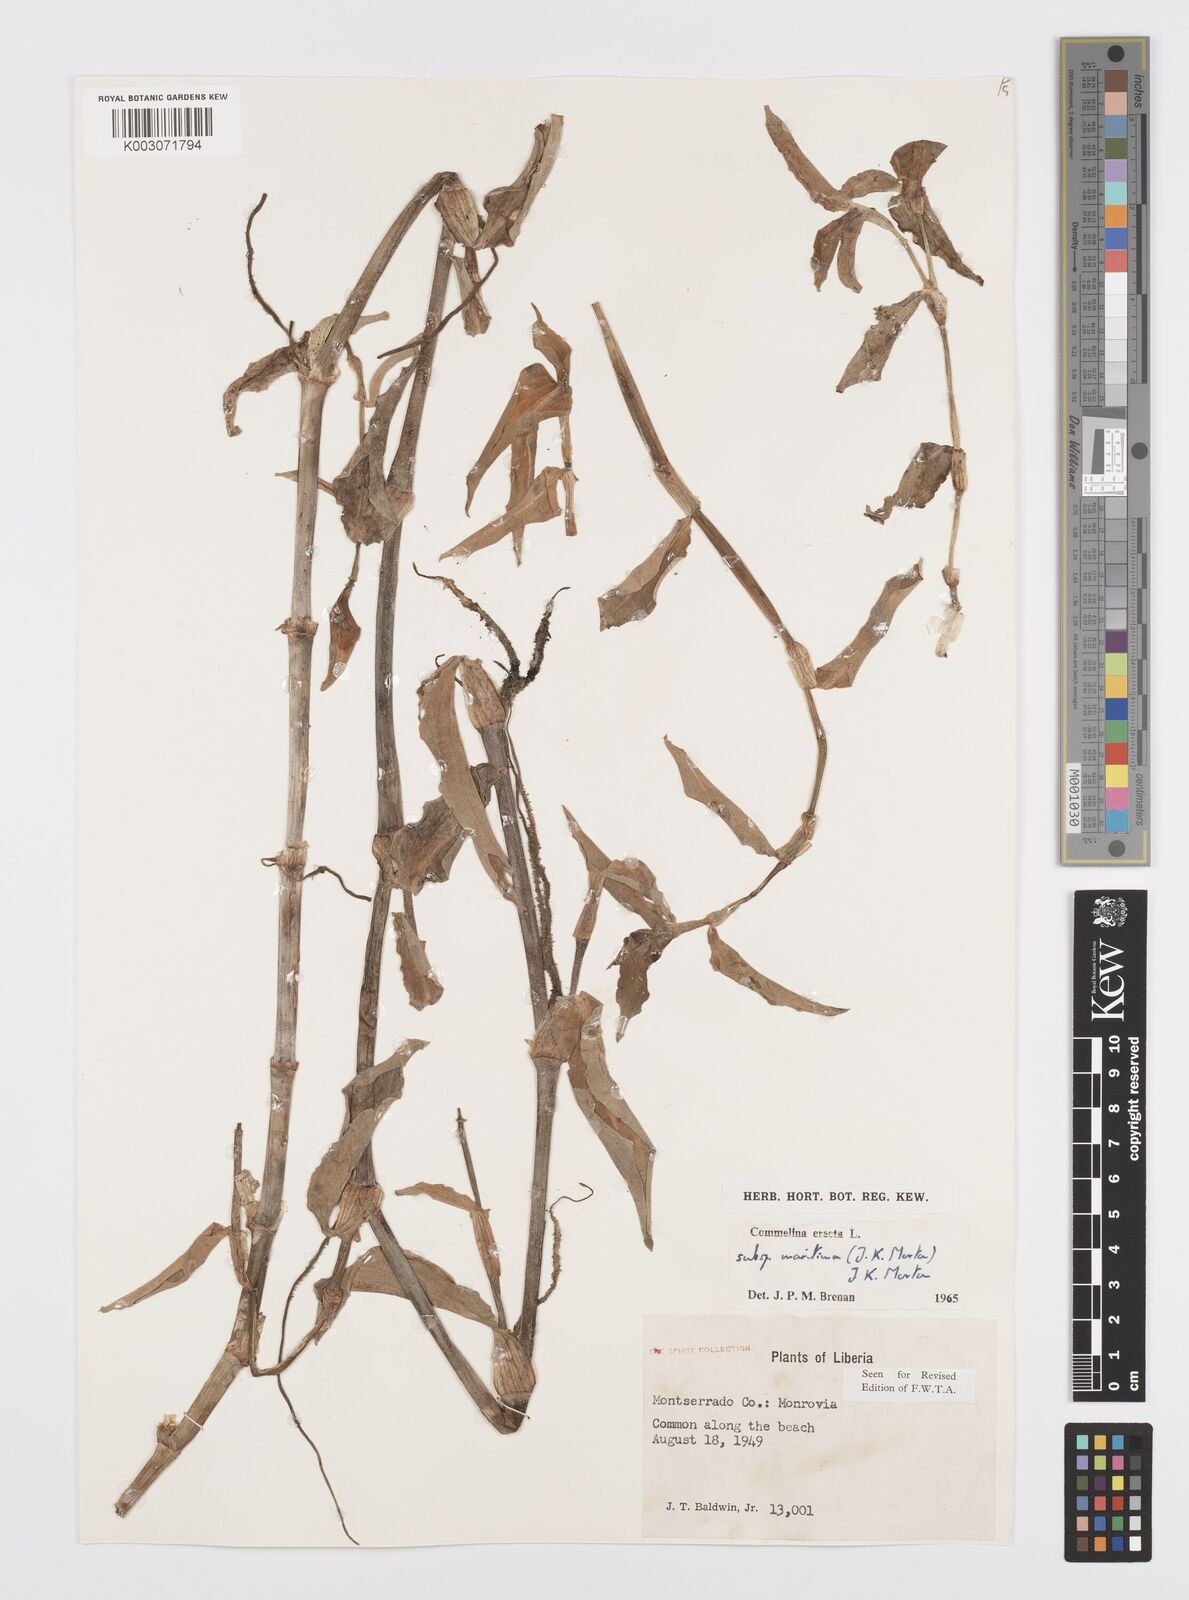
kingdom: Plantae
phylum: Tracheophyta
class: Liliopsida
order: Commelinales
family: Commelinaceae
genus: Commelina
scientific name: Commelina erecta
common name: Blousel blommetjie
